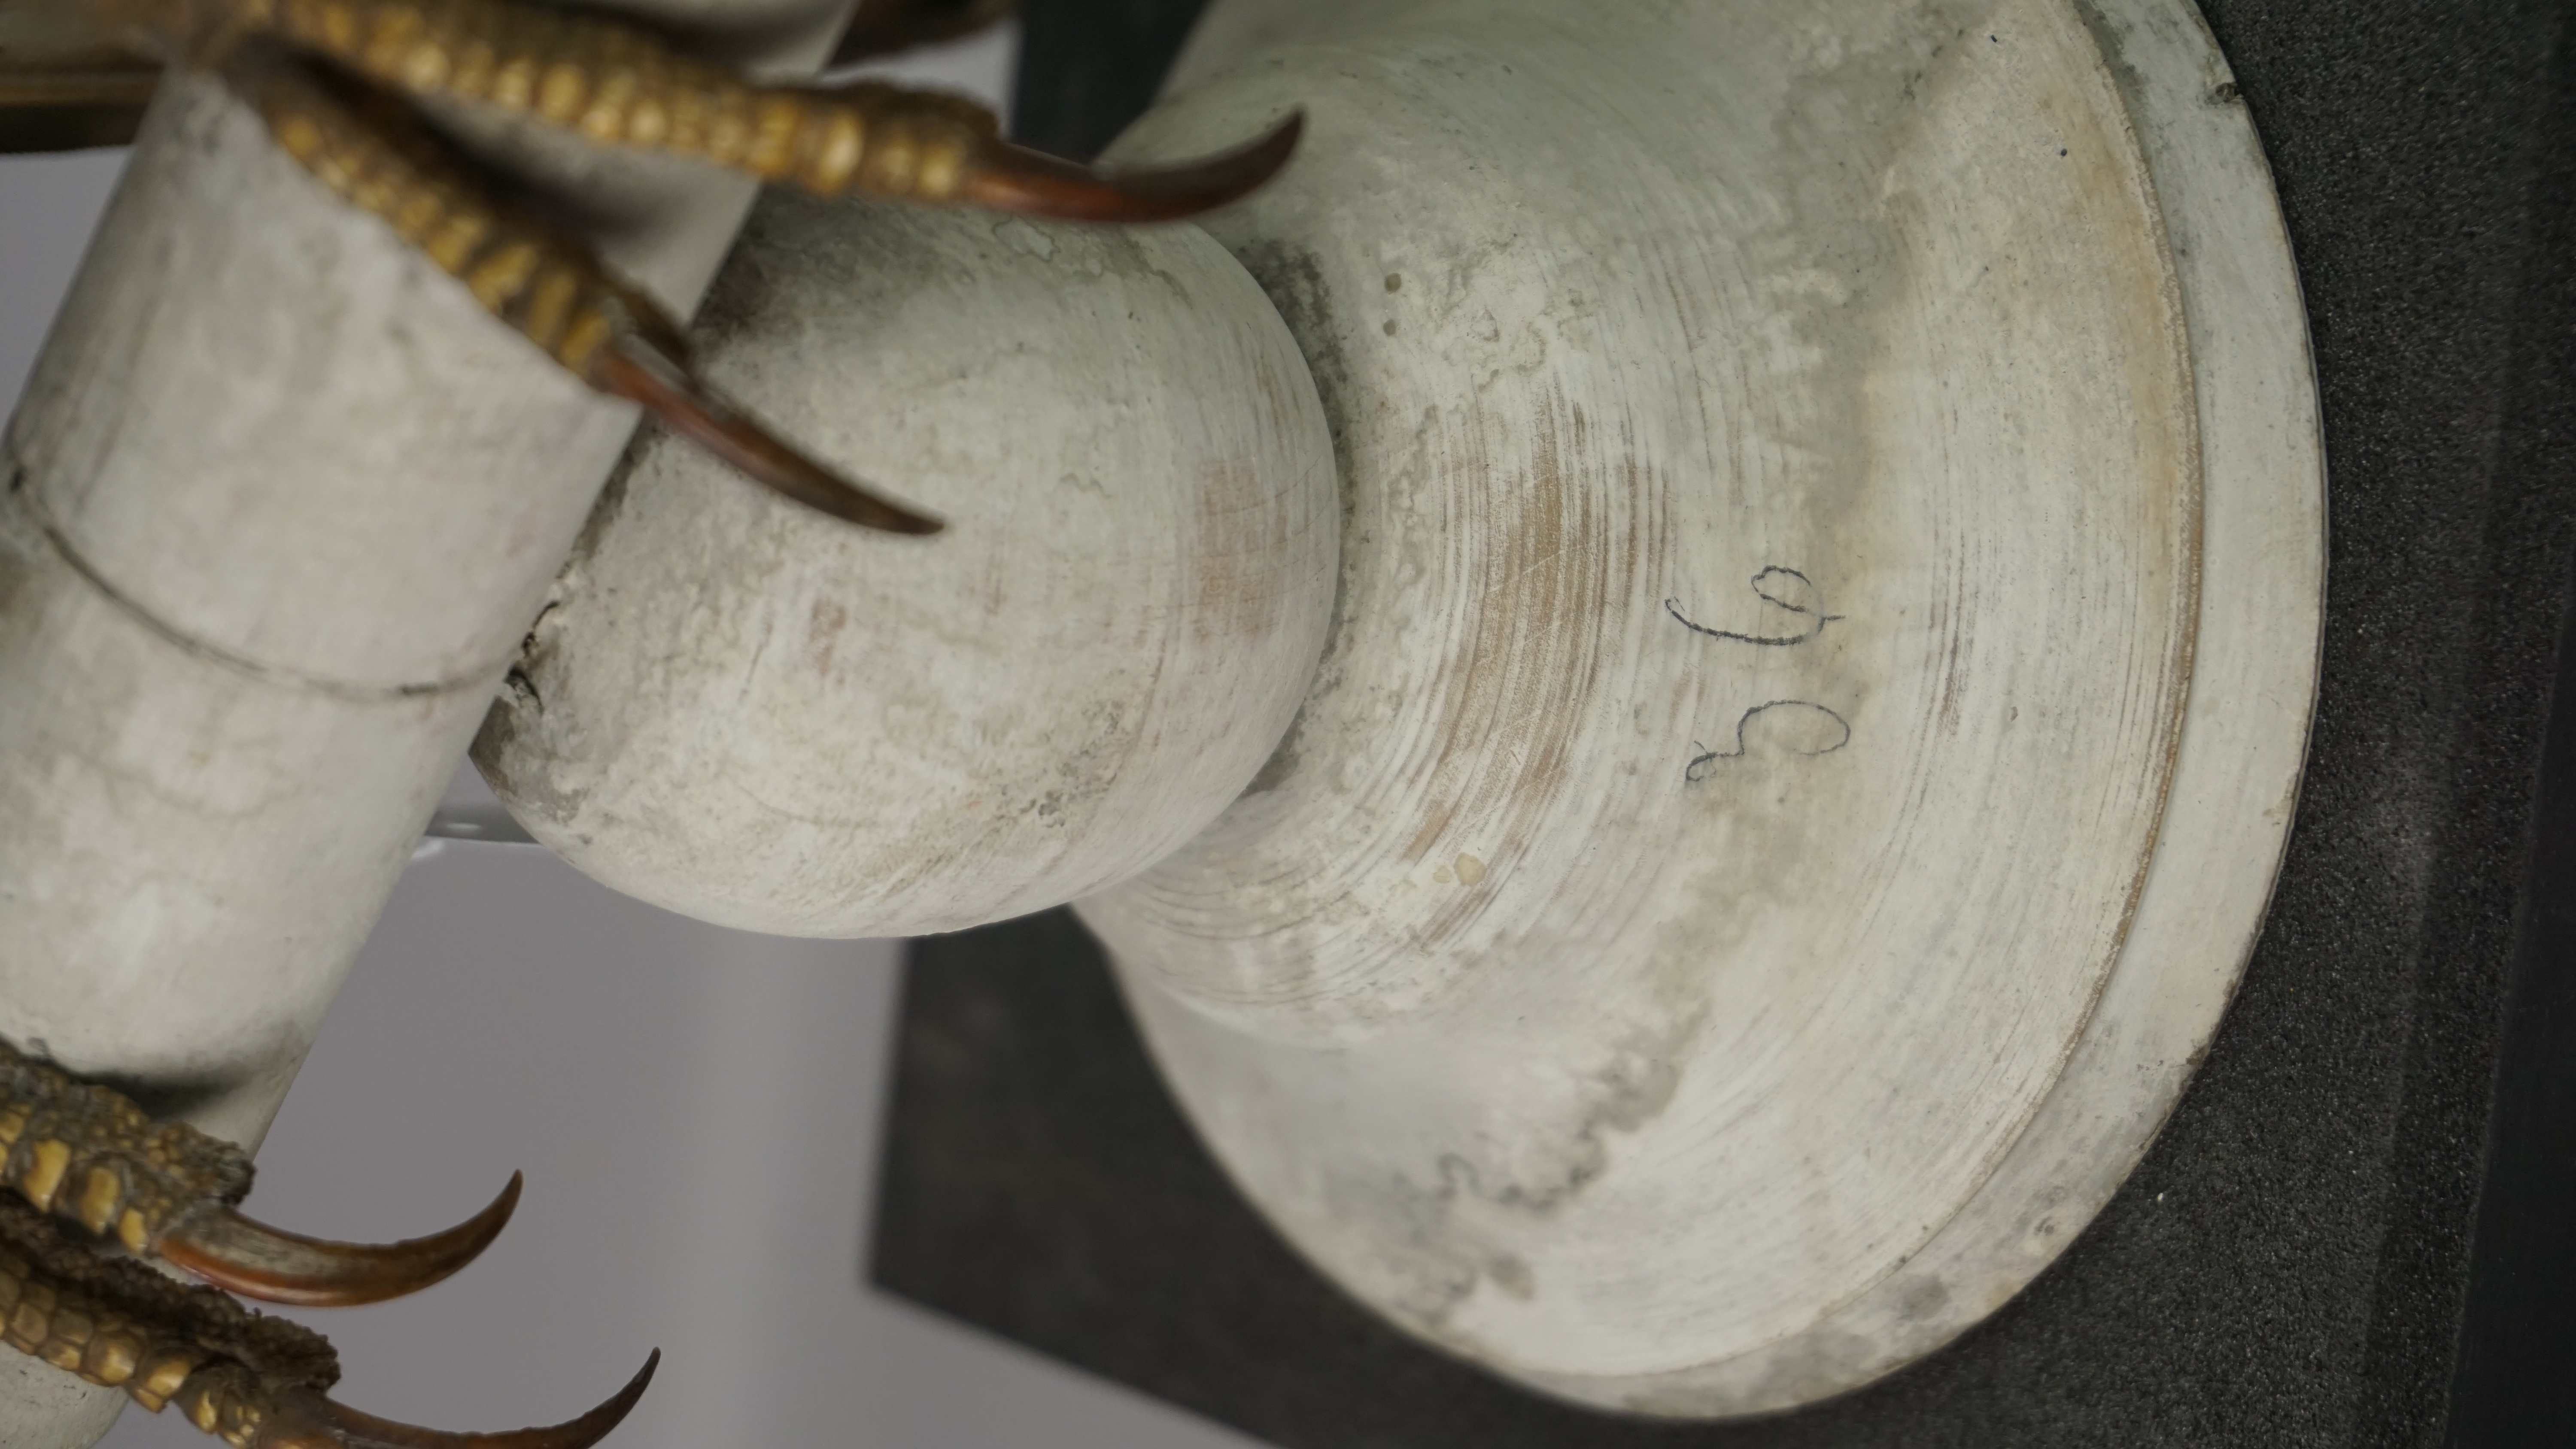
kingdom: Animalia
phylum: Chordata
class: Aves
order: Accipitriformes
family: Accipitridae
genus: Pernis
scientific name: Pernis apivorus
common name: European honey buzzard
